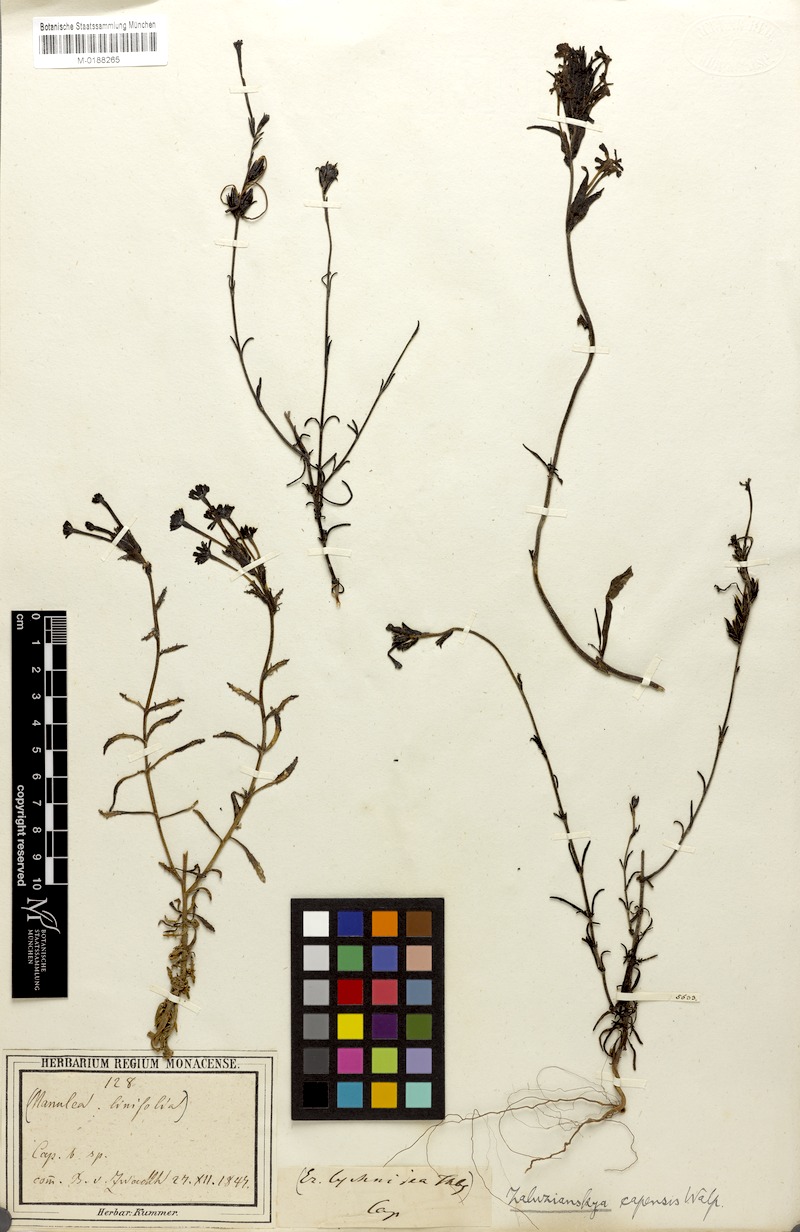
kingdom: Plantae
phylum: Tracheophyta
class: Magnoliopsida
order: Lamiales
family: Scrophulariaceae
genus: Zaluzianskya
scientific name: Zaluzianskya capensis
